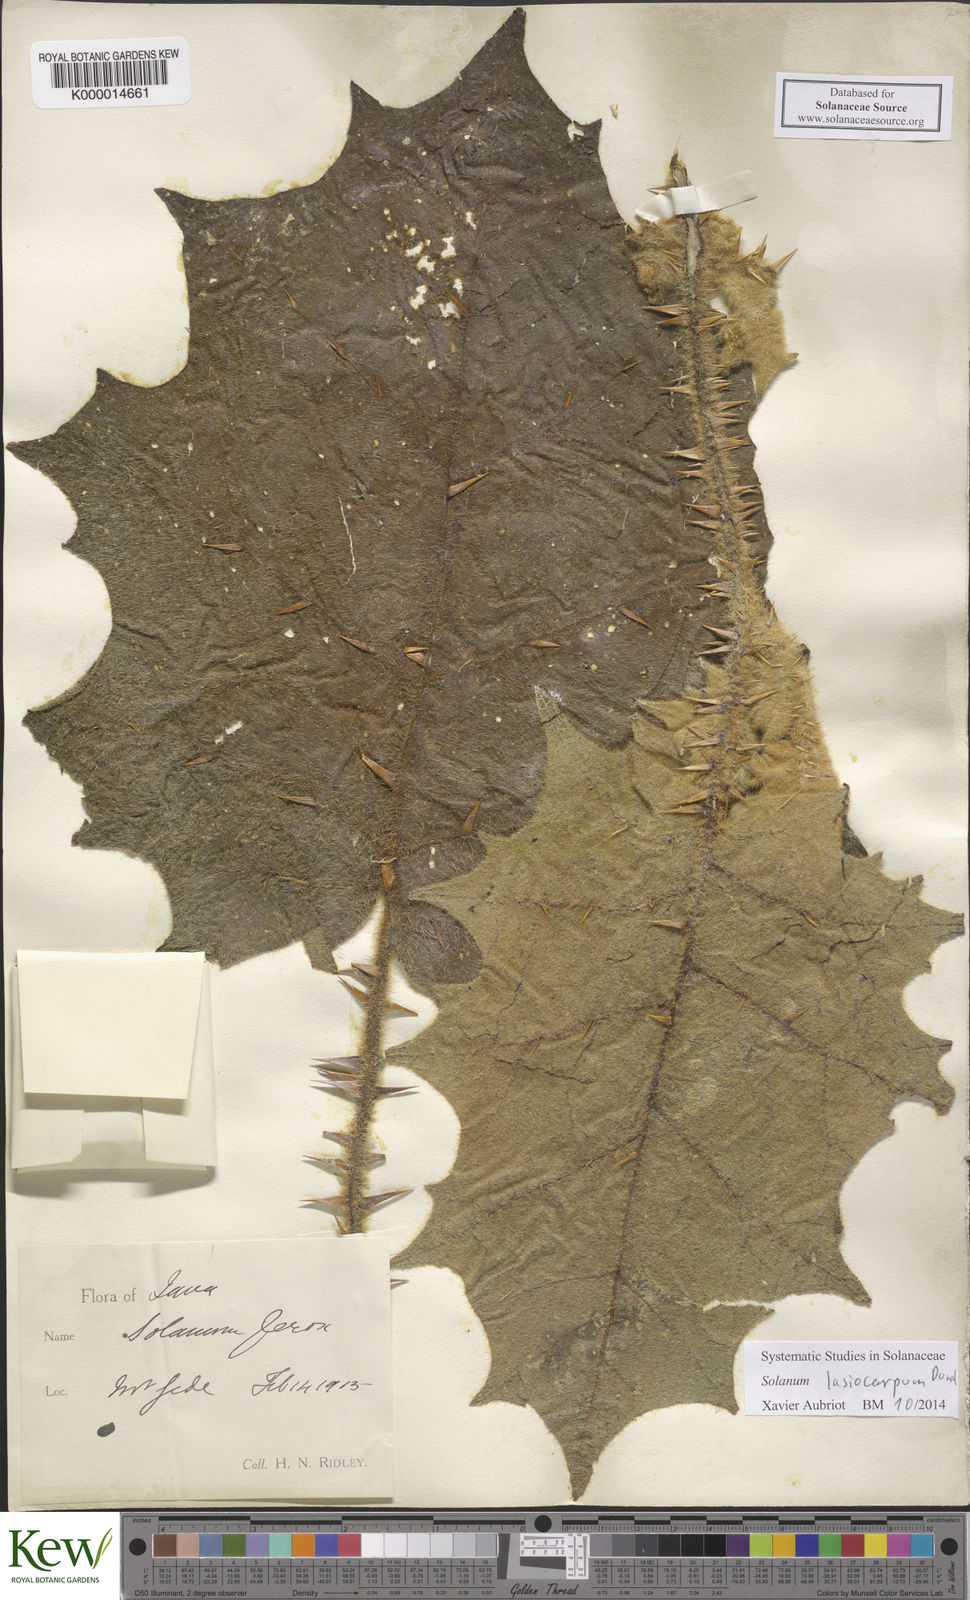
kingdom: Plantae
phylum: Tracheophyta
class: Magnoliopsida
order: Solanales
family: Solanaceae
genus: Solanum
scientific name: Solanum lasiocarpum
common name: Indian nightshade
